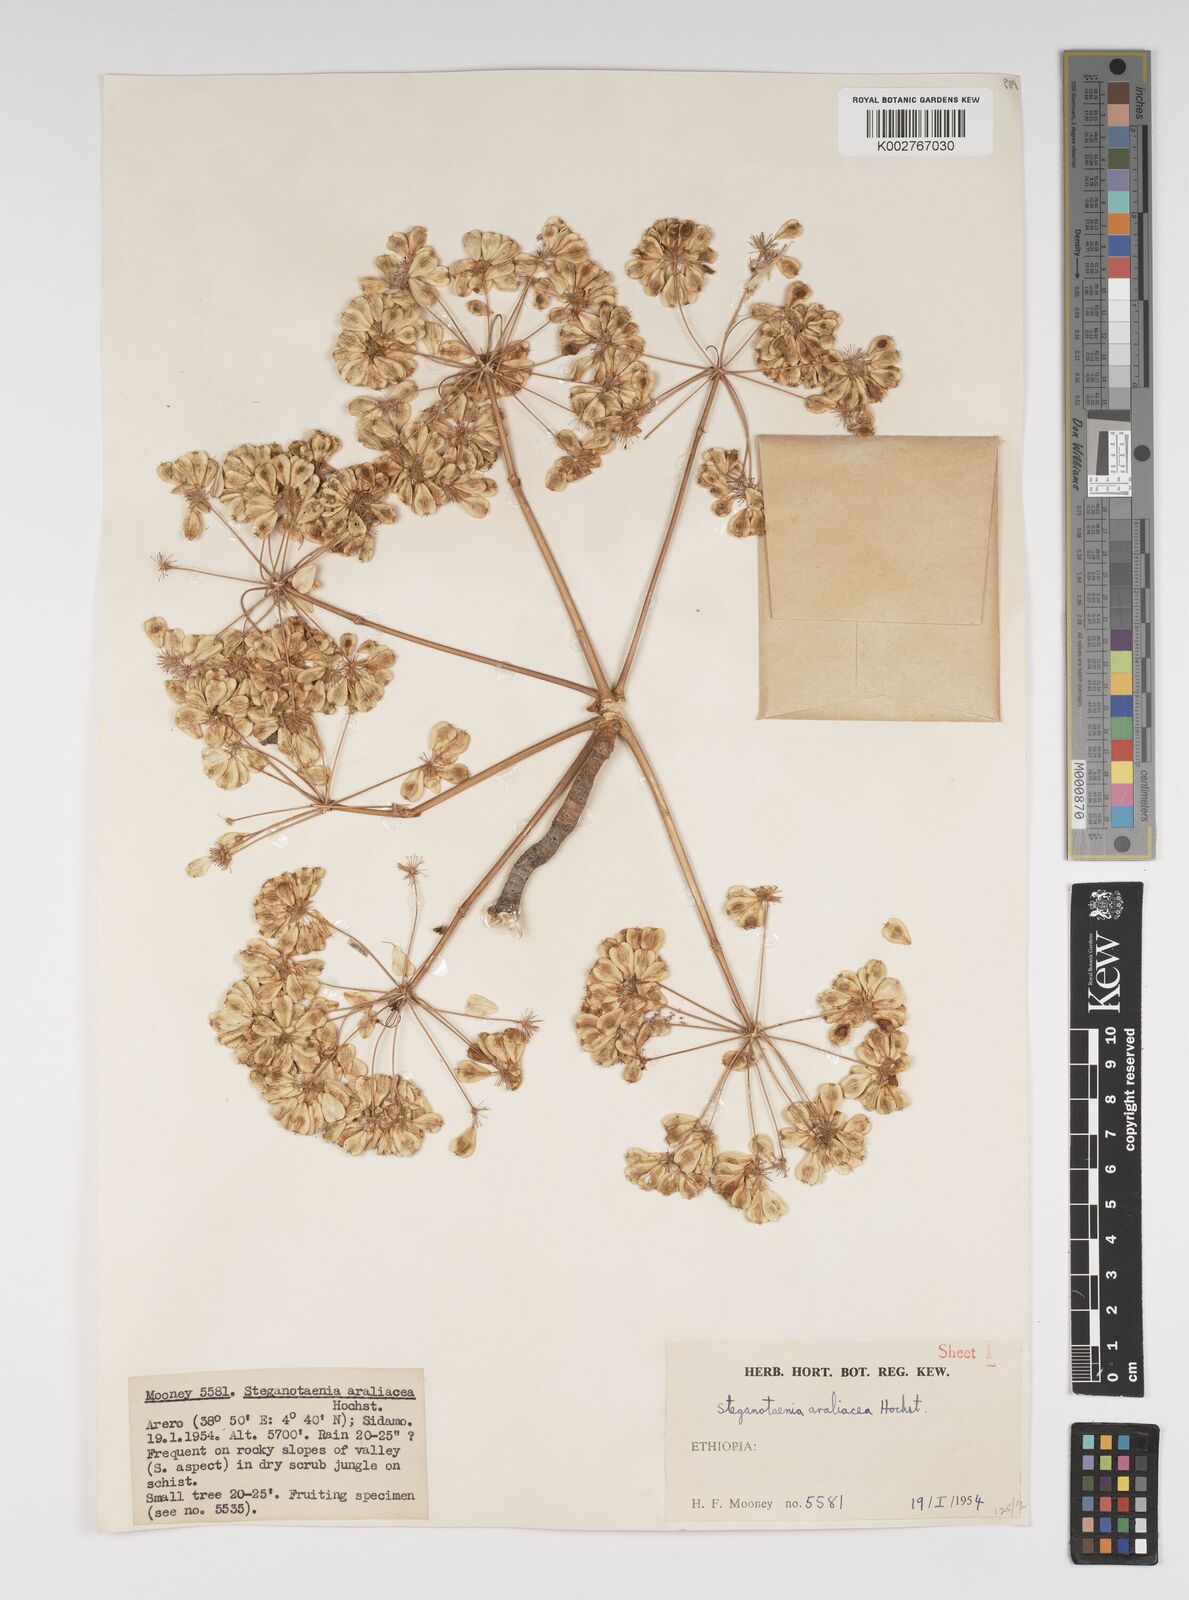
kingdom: Plantae
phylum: Tracheophyta
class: Magnoliopsida
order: Apiales
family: Apiaceae
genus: Steganotaenia
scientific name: Steganotaenia araliacea
